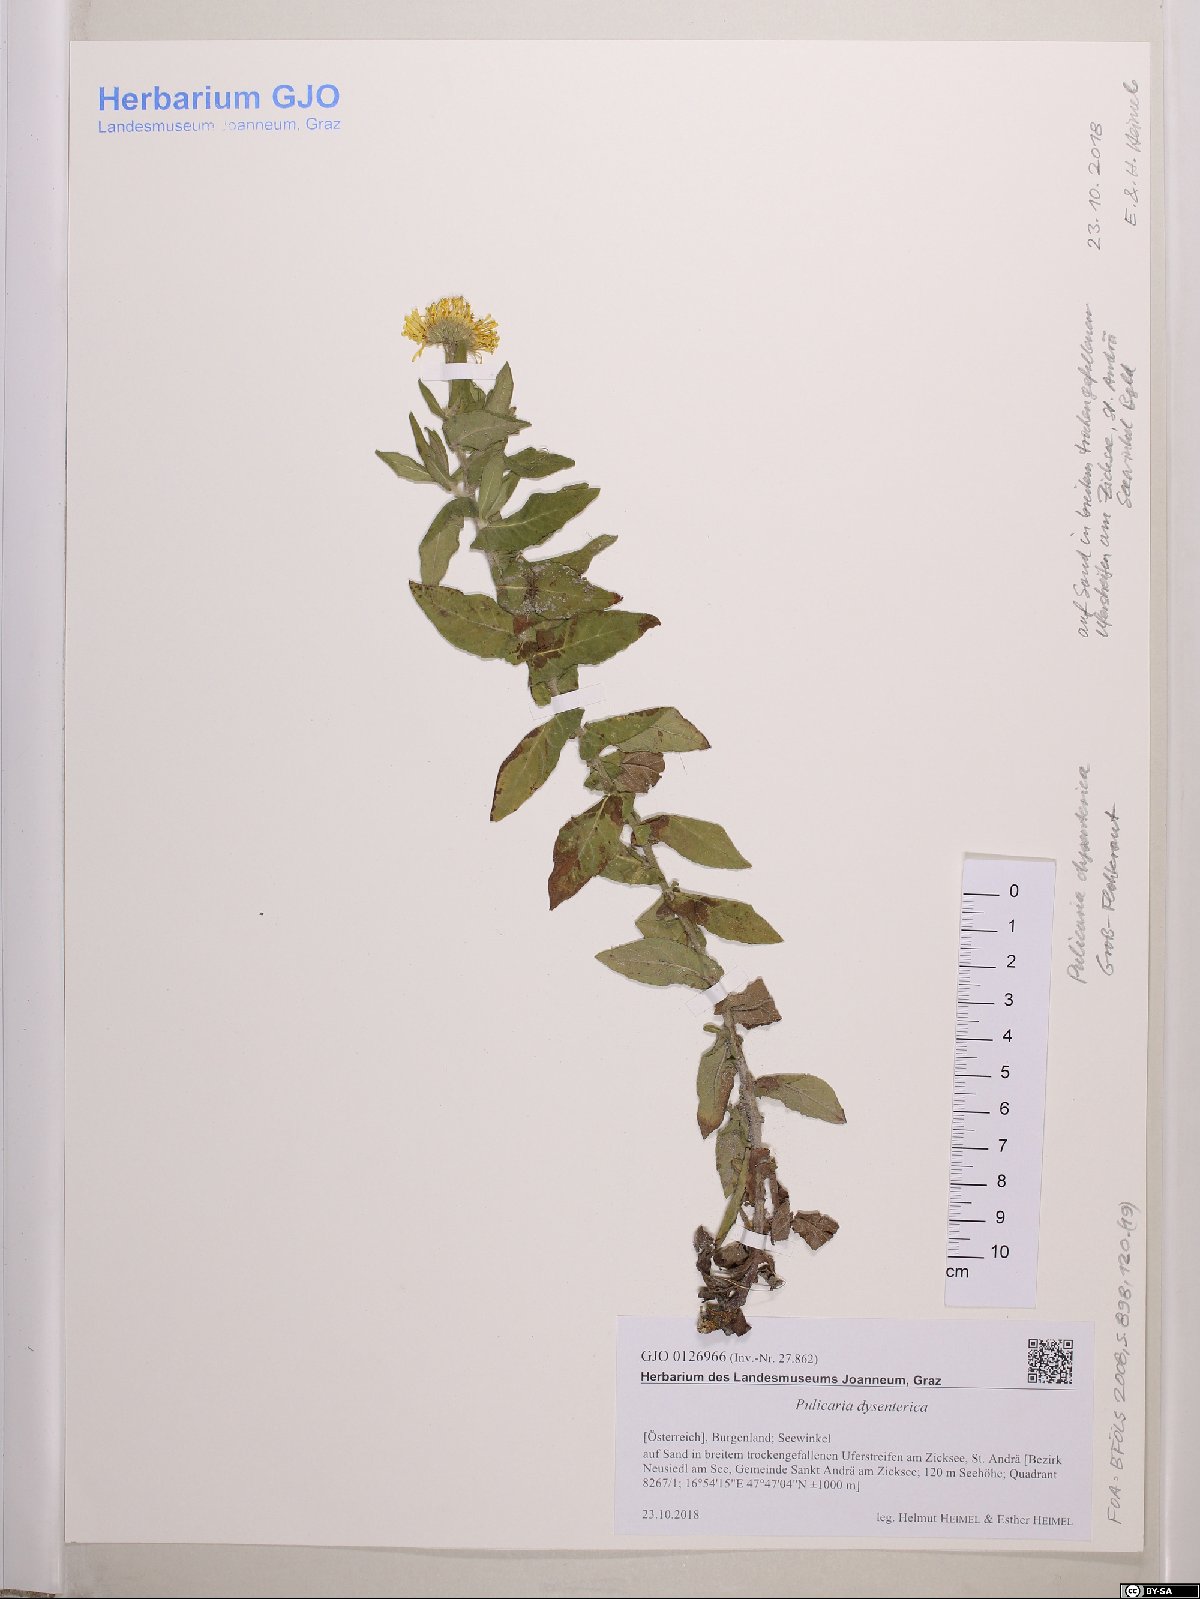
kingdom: Plantae
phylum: Tracheophyta
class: Magnoliopsida
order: Asterales
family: Asteraceae
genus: Pulicaria
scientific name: Pulicaria dysenterica
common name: Common fleabane
